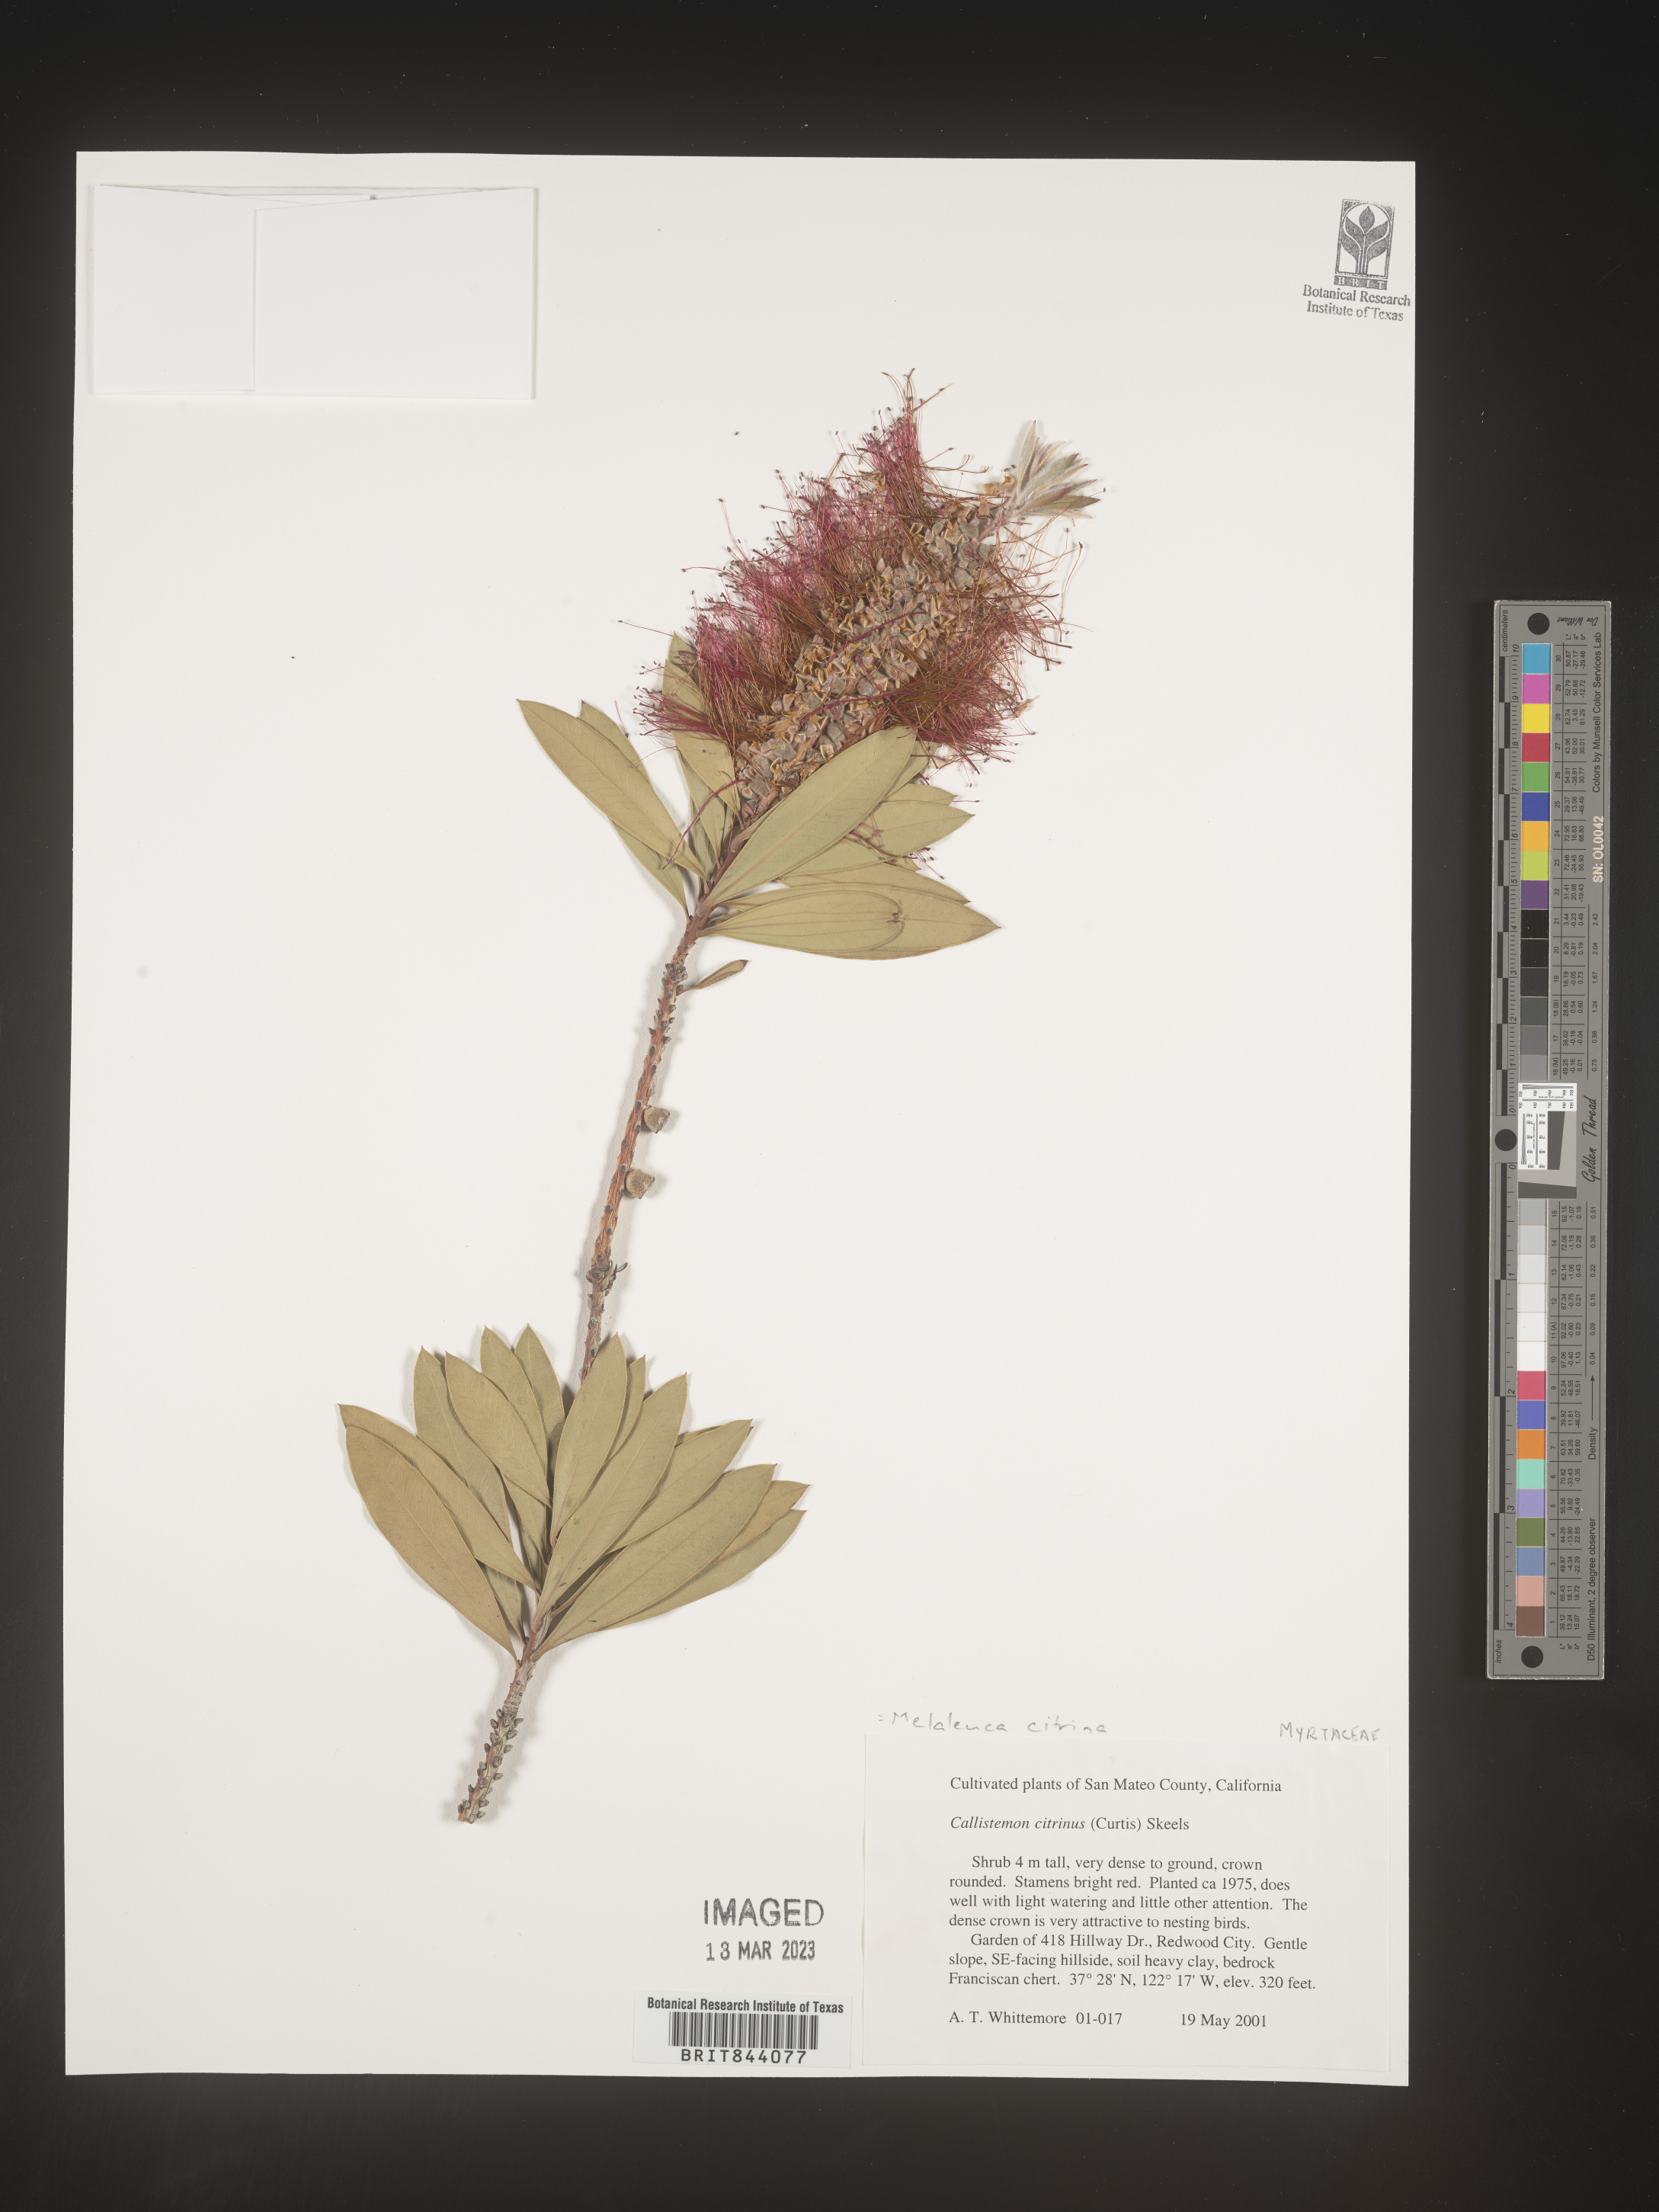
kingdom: Plantae
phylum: Tracheophyta
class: Magnoliopsida
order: Myrtales
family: Myrtaceae
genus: Melaleuca
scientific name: Melaleuca lutea
